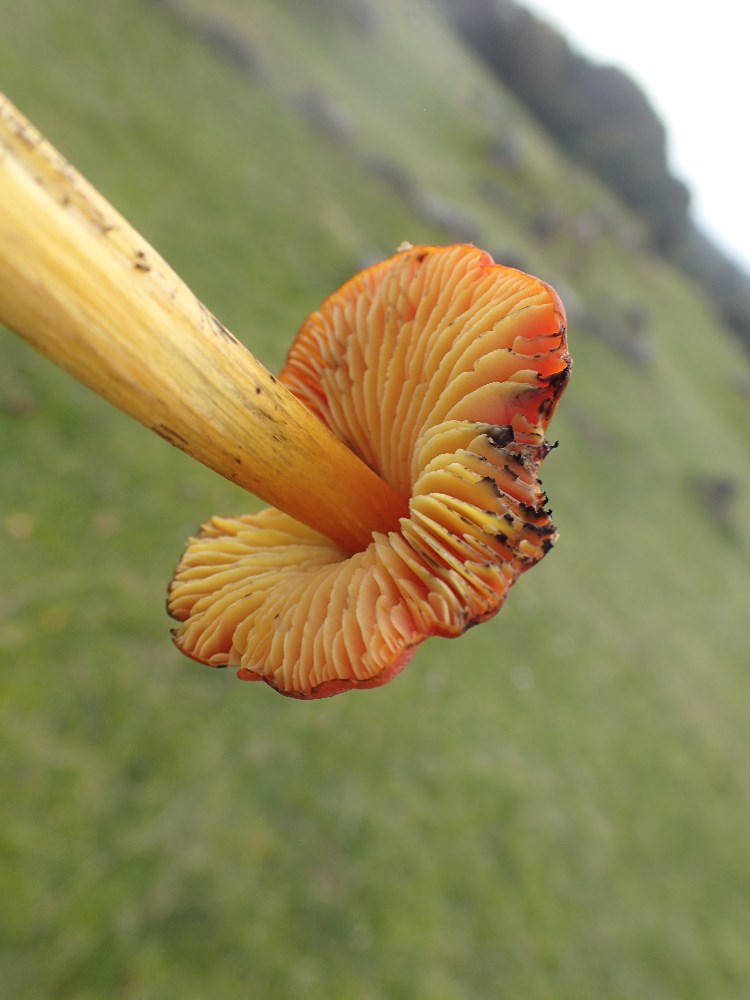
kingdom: Fungi
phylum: Basidiomycota
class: Agaricomycetes
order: Agaricales
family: Hygrophoraceae
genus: Hygrocybe
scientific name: Hygrocybe conica
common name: kegle-vokshat
